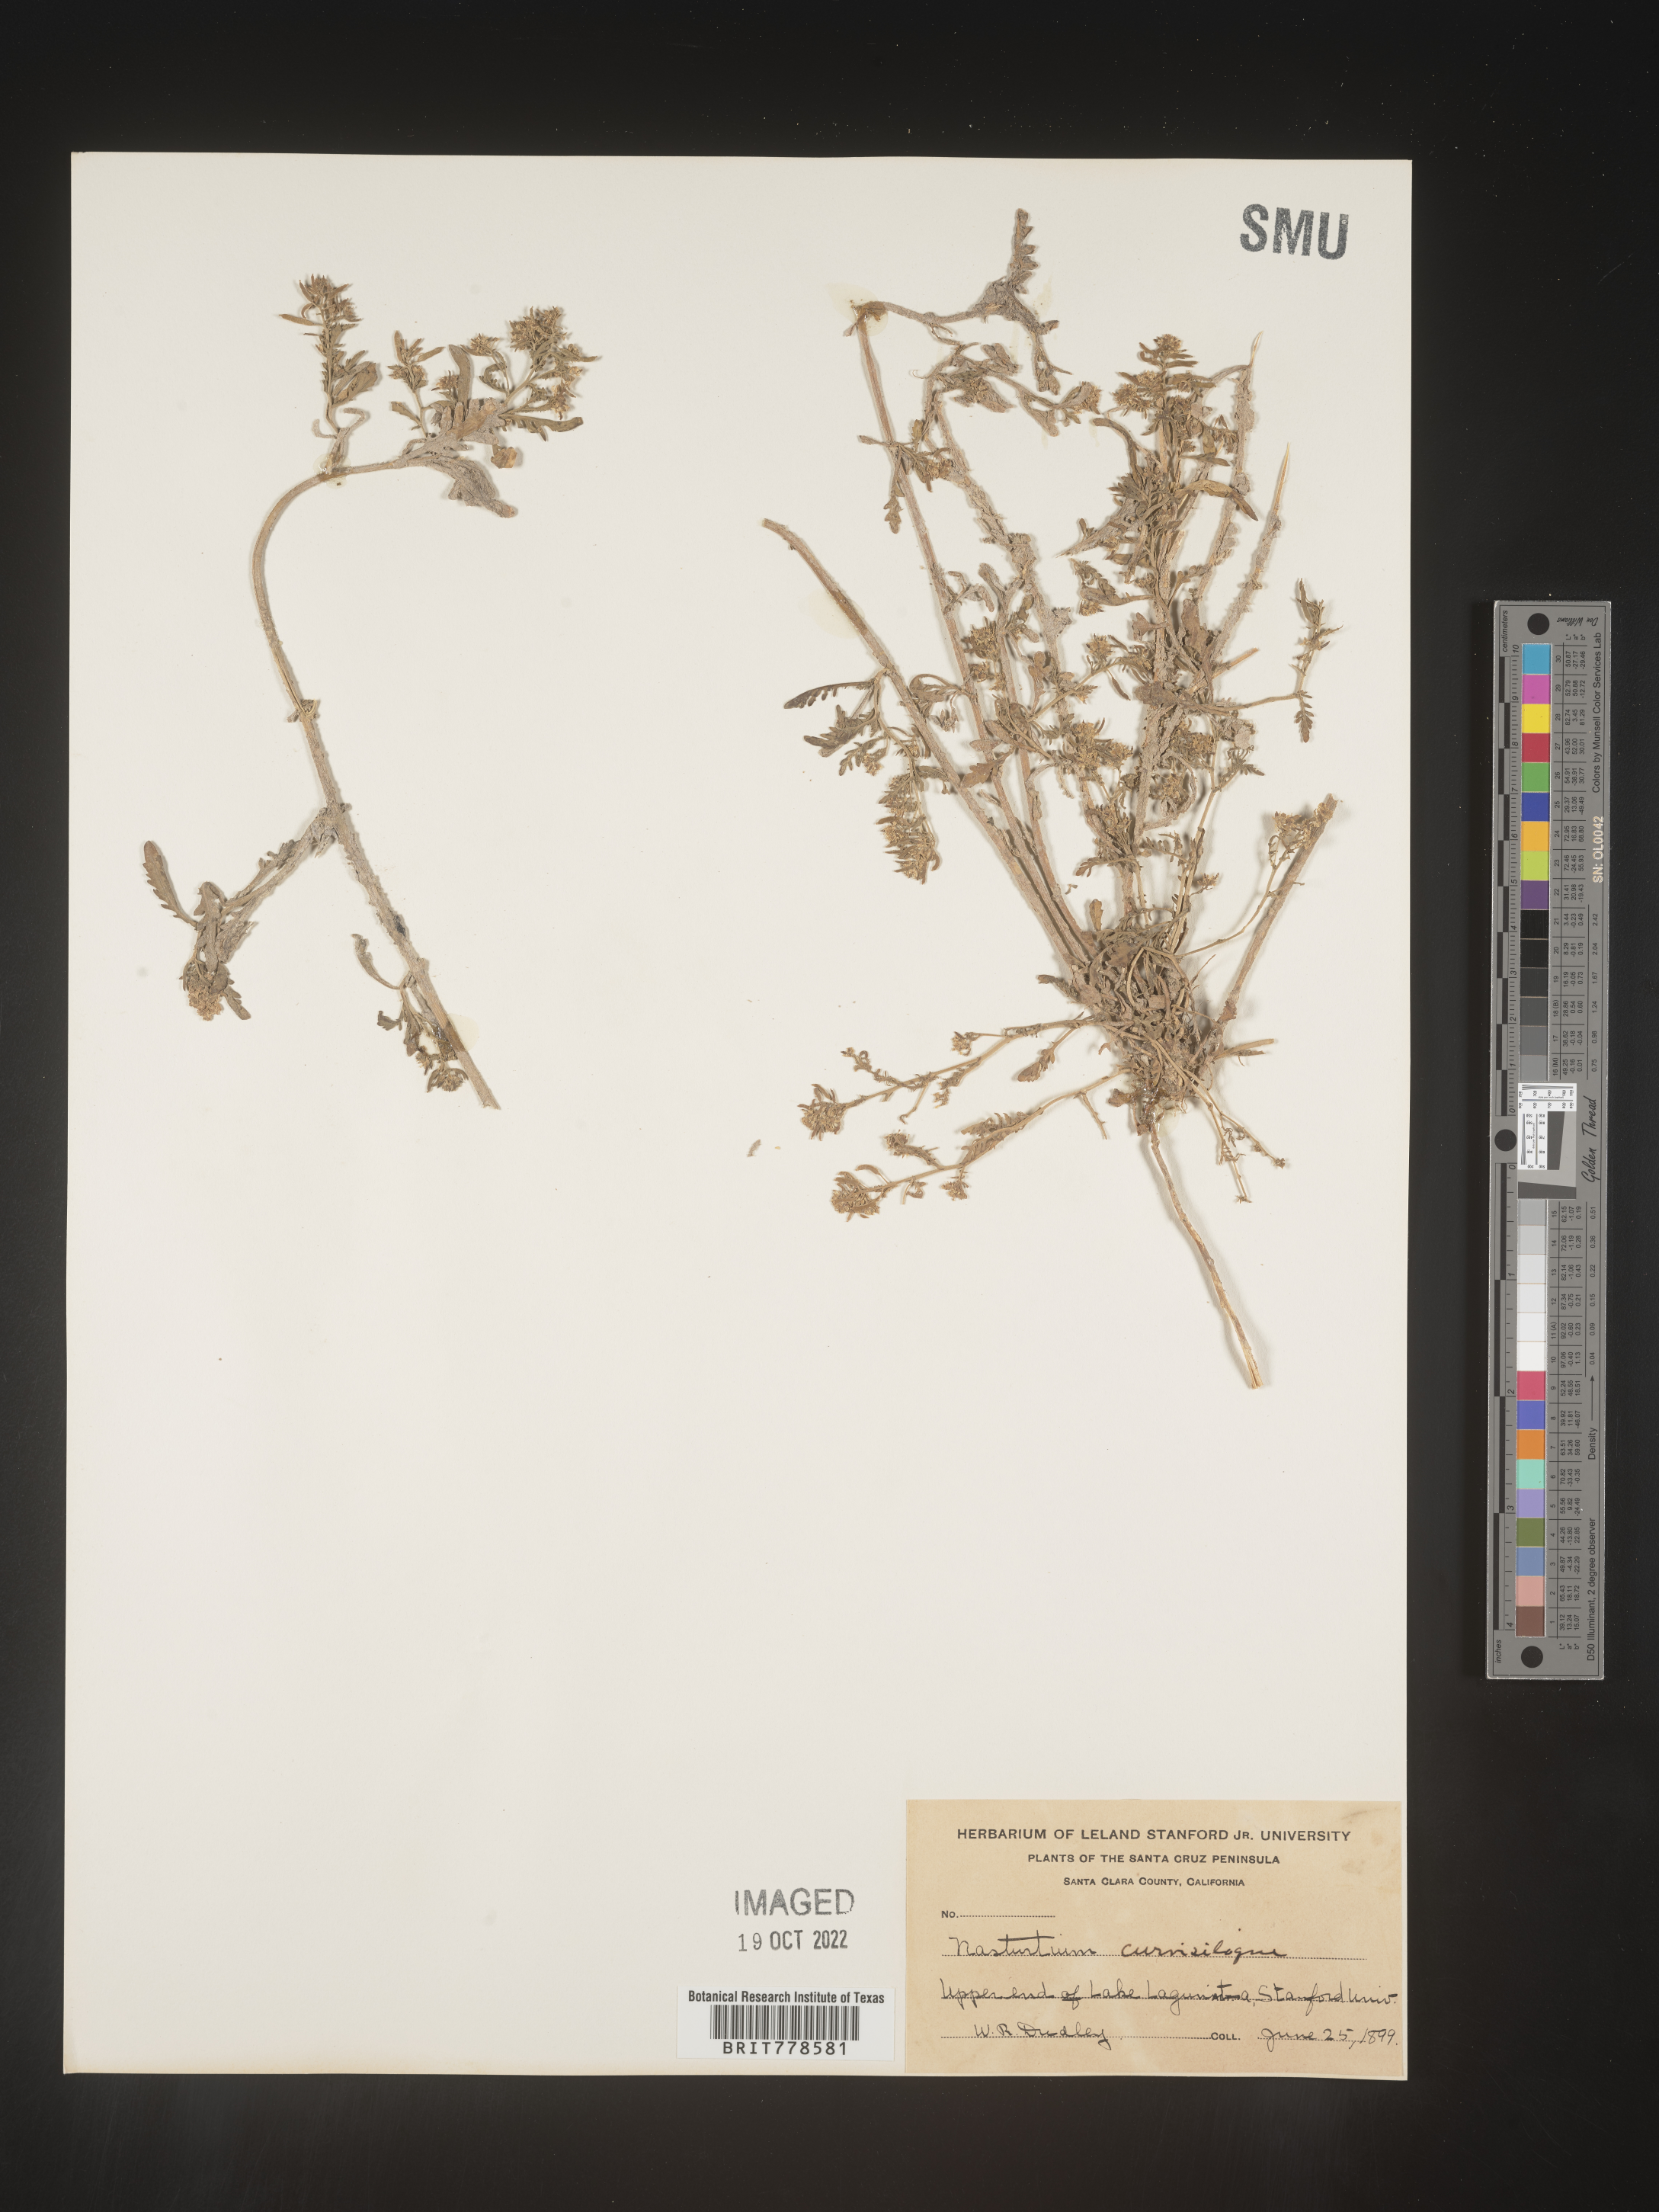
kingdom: Plantae
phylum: Tracheophyta
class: Magnoliopsida
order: Brassicales
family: Brassicaceae
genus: Rorippa
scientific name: Rorippa
